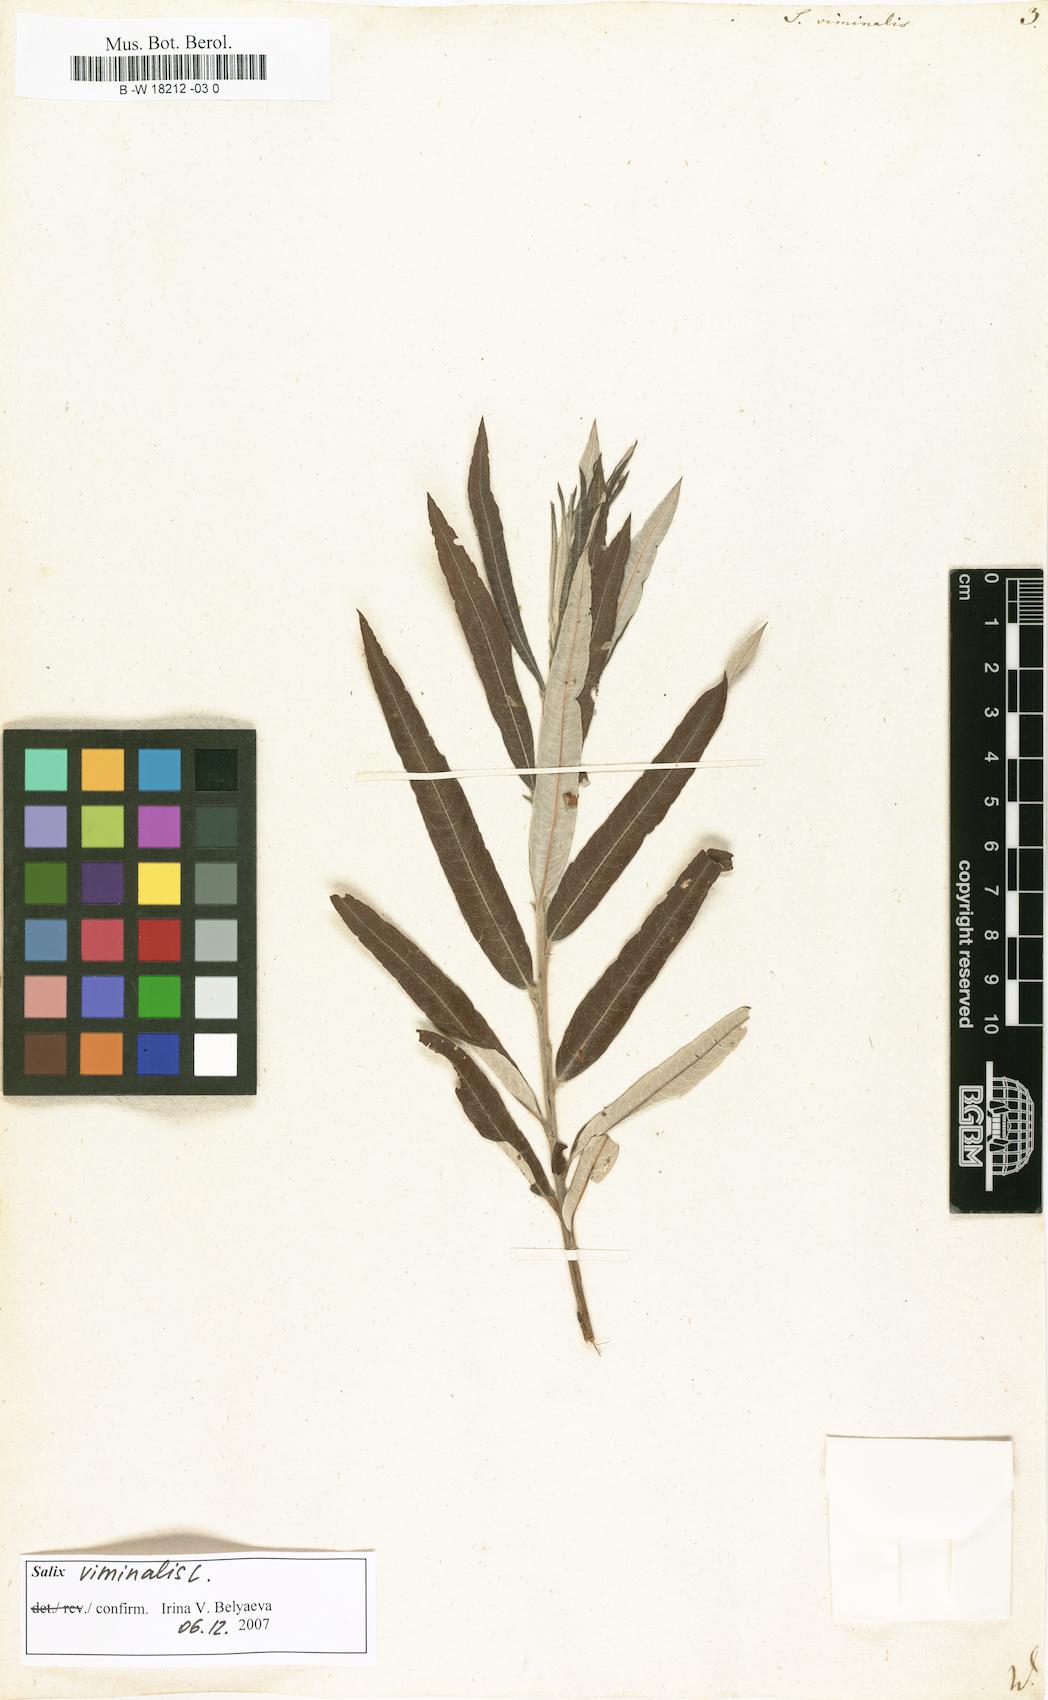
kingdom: Plantae
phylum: Tracheophyta
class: Magnoliopsida
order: Malpighiales
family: Salicaceae
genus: Salix
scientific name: Salix viminalis
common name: Osier
